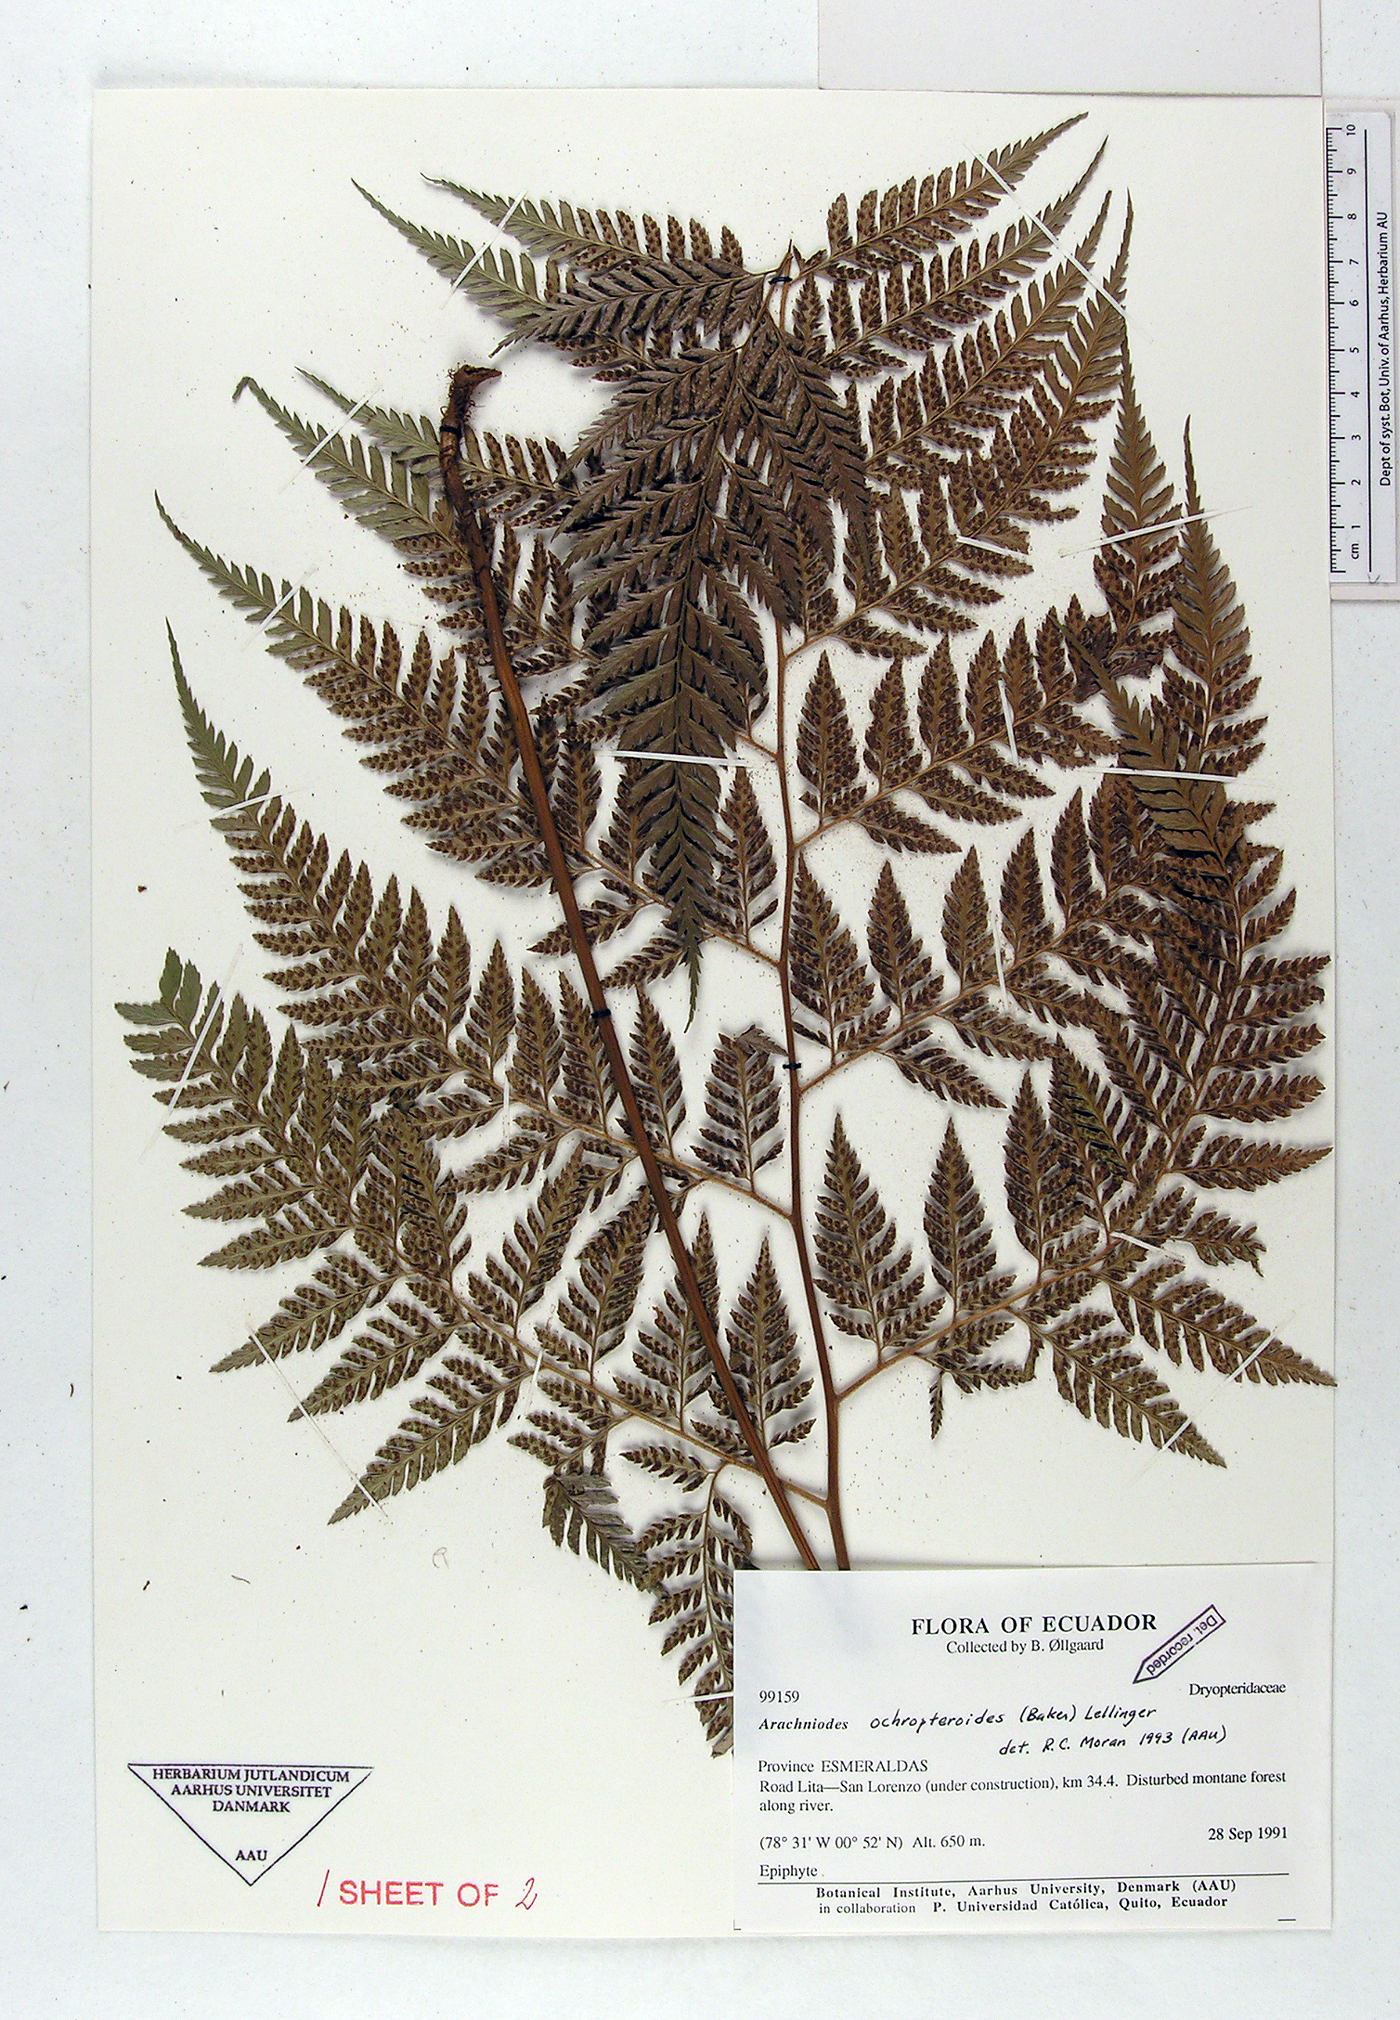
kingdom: Plantae
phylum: Tracheophyta
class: Polypodiopsida
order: Polypodiales
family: Dryopteridaceae
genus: Olfersia
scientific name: Olfersia ochropteroides
